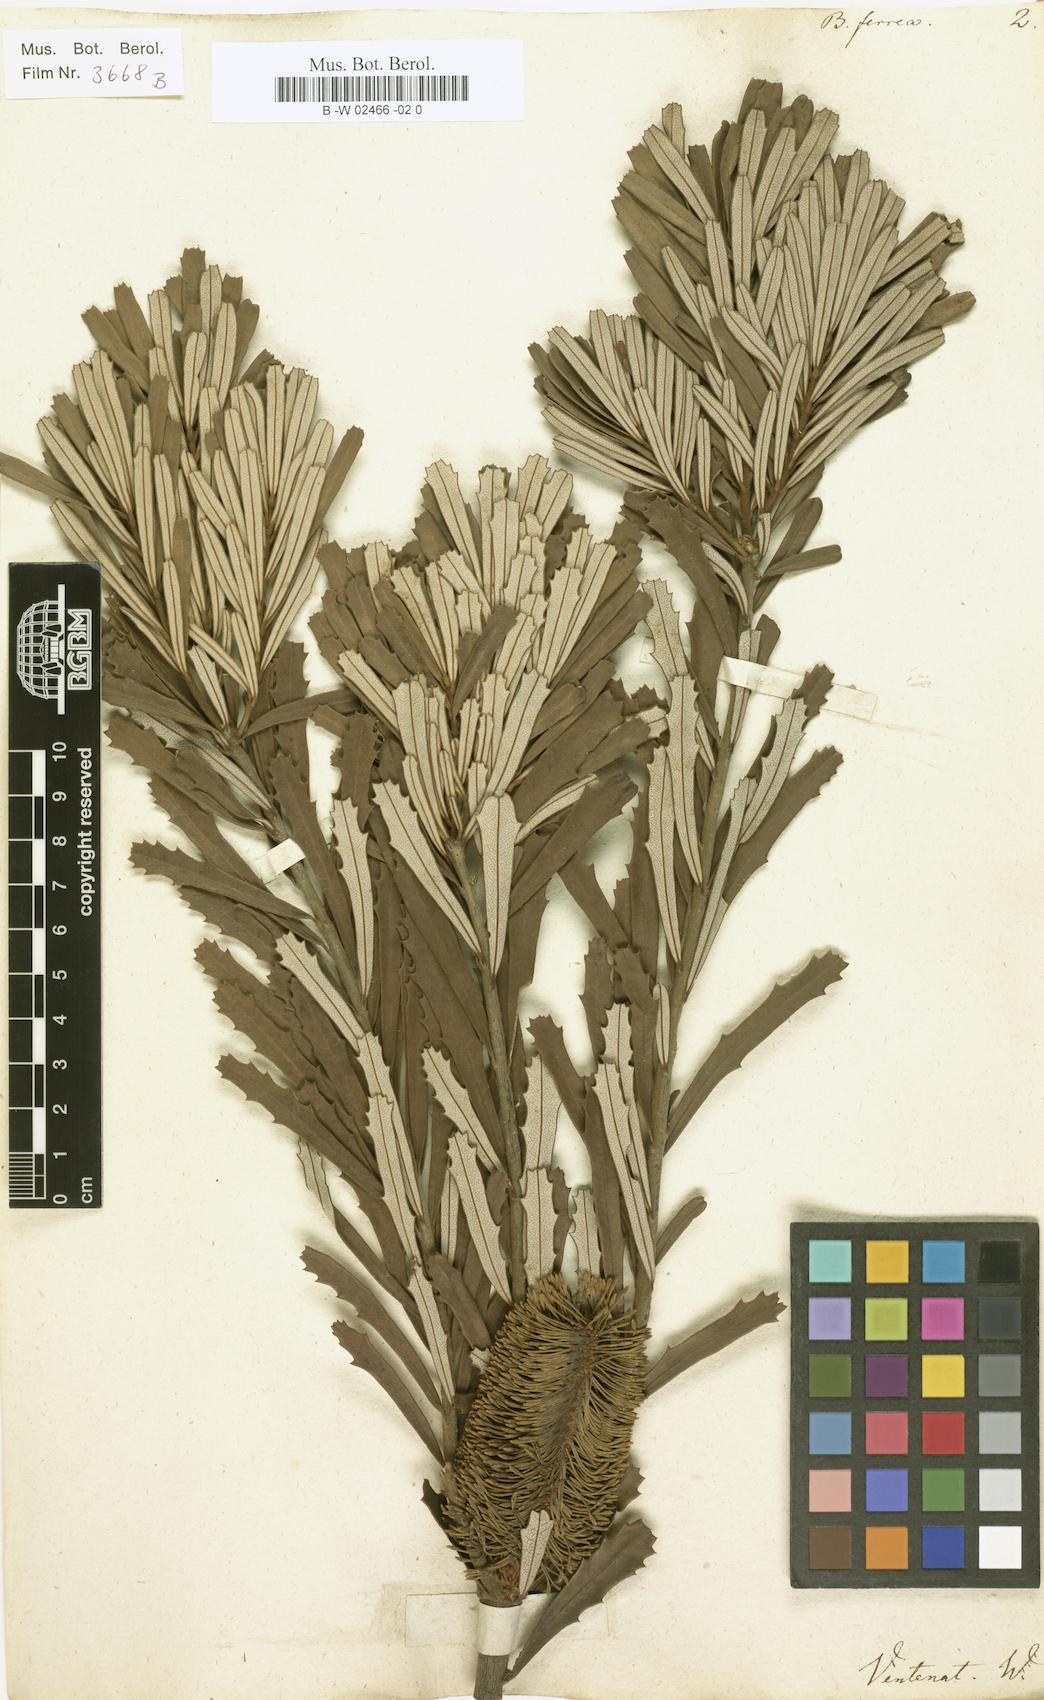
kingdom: Plantae
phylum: Tracheophyta
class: Magnoliopsida
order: Proteales
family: Proteaceae
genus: Banksia
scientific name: Banksia marginata
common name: Silver banksia
